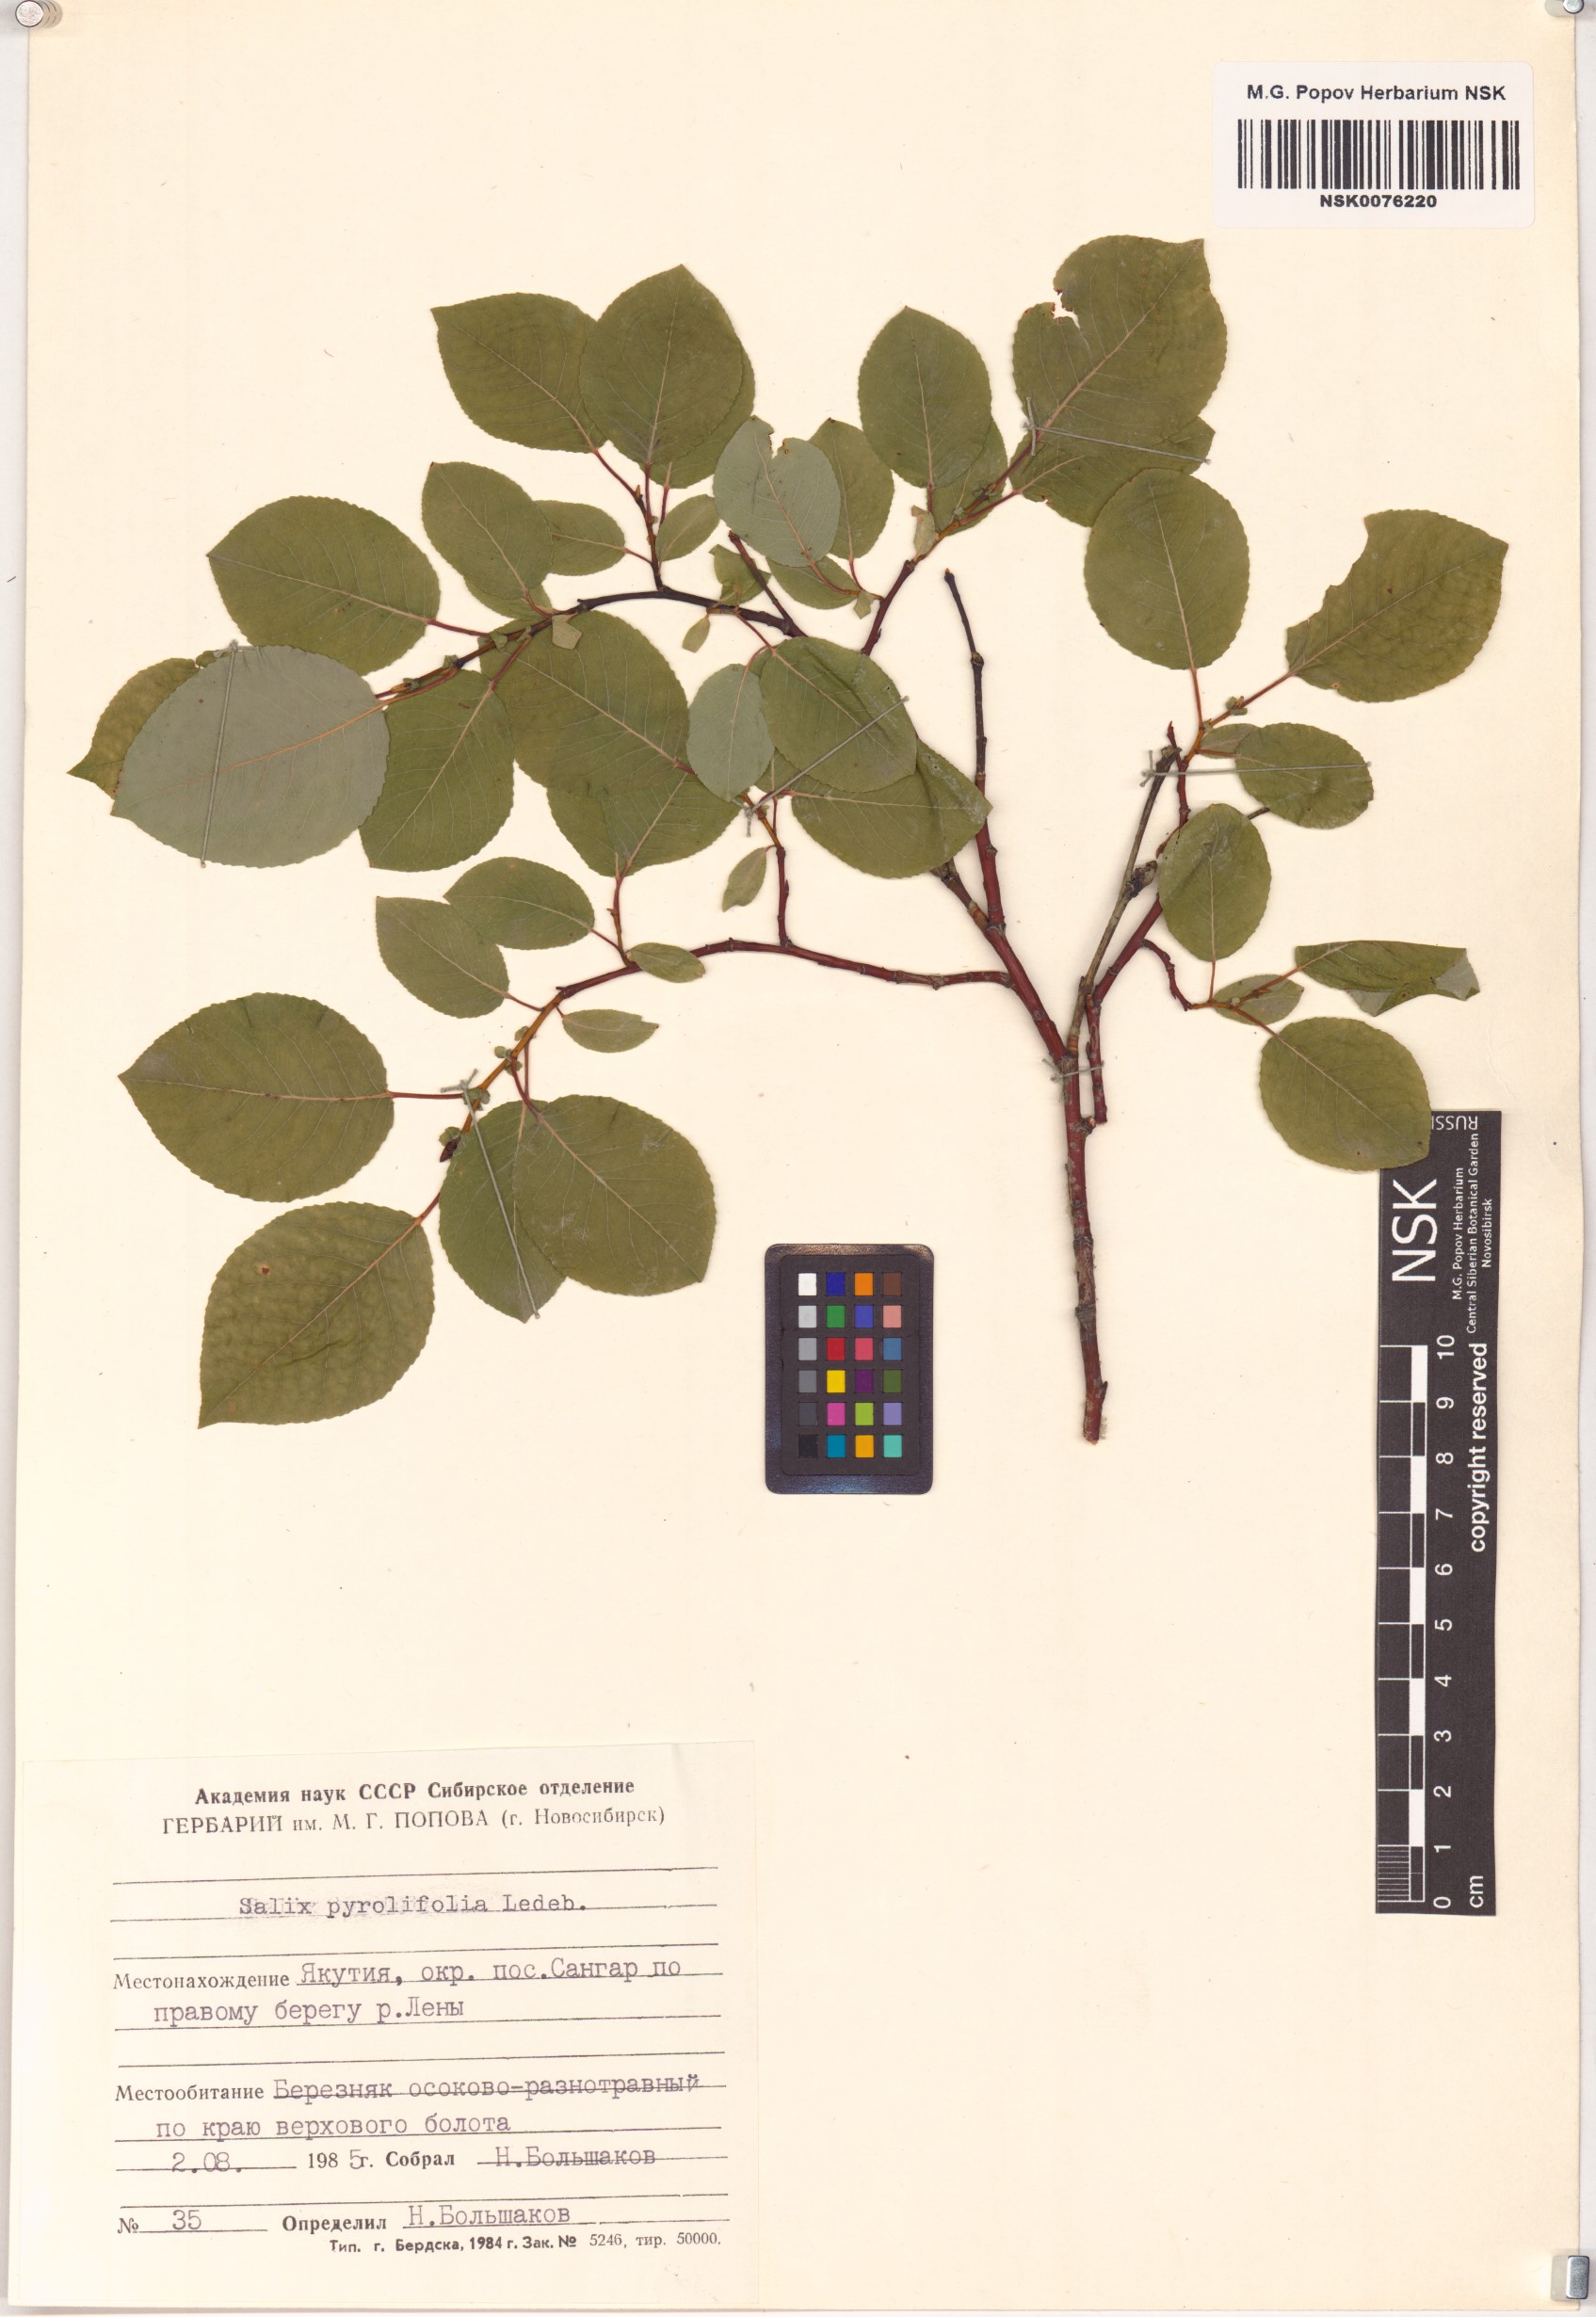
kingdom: Plantae
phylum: Tracheophyta
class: Magnoliopsida
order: Malpighiales
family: Salicaceae
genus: Salix
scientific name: Salix pyrolifolia
